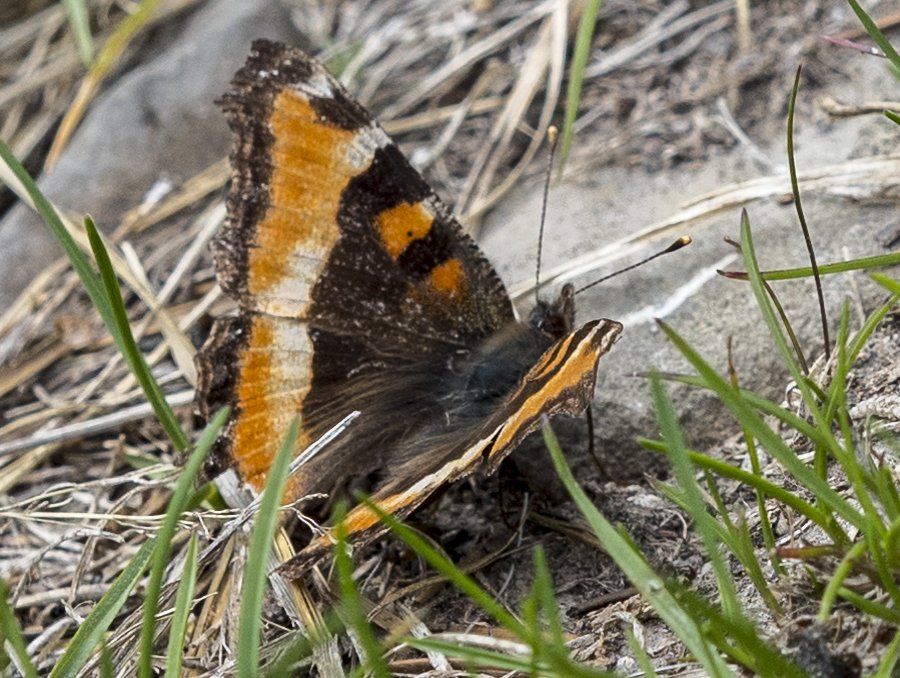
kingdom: Animalia
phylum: Arthropoda
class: Insecta
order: Lepidoptera
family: Nymphalidae
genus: Aglais
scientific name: Aglais milberti
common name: Milbert's Tortoiseshell
